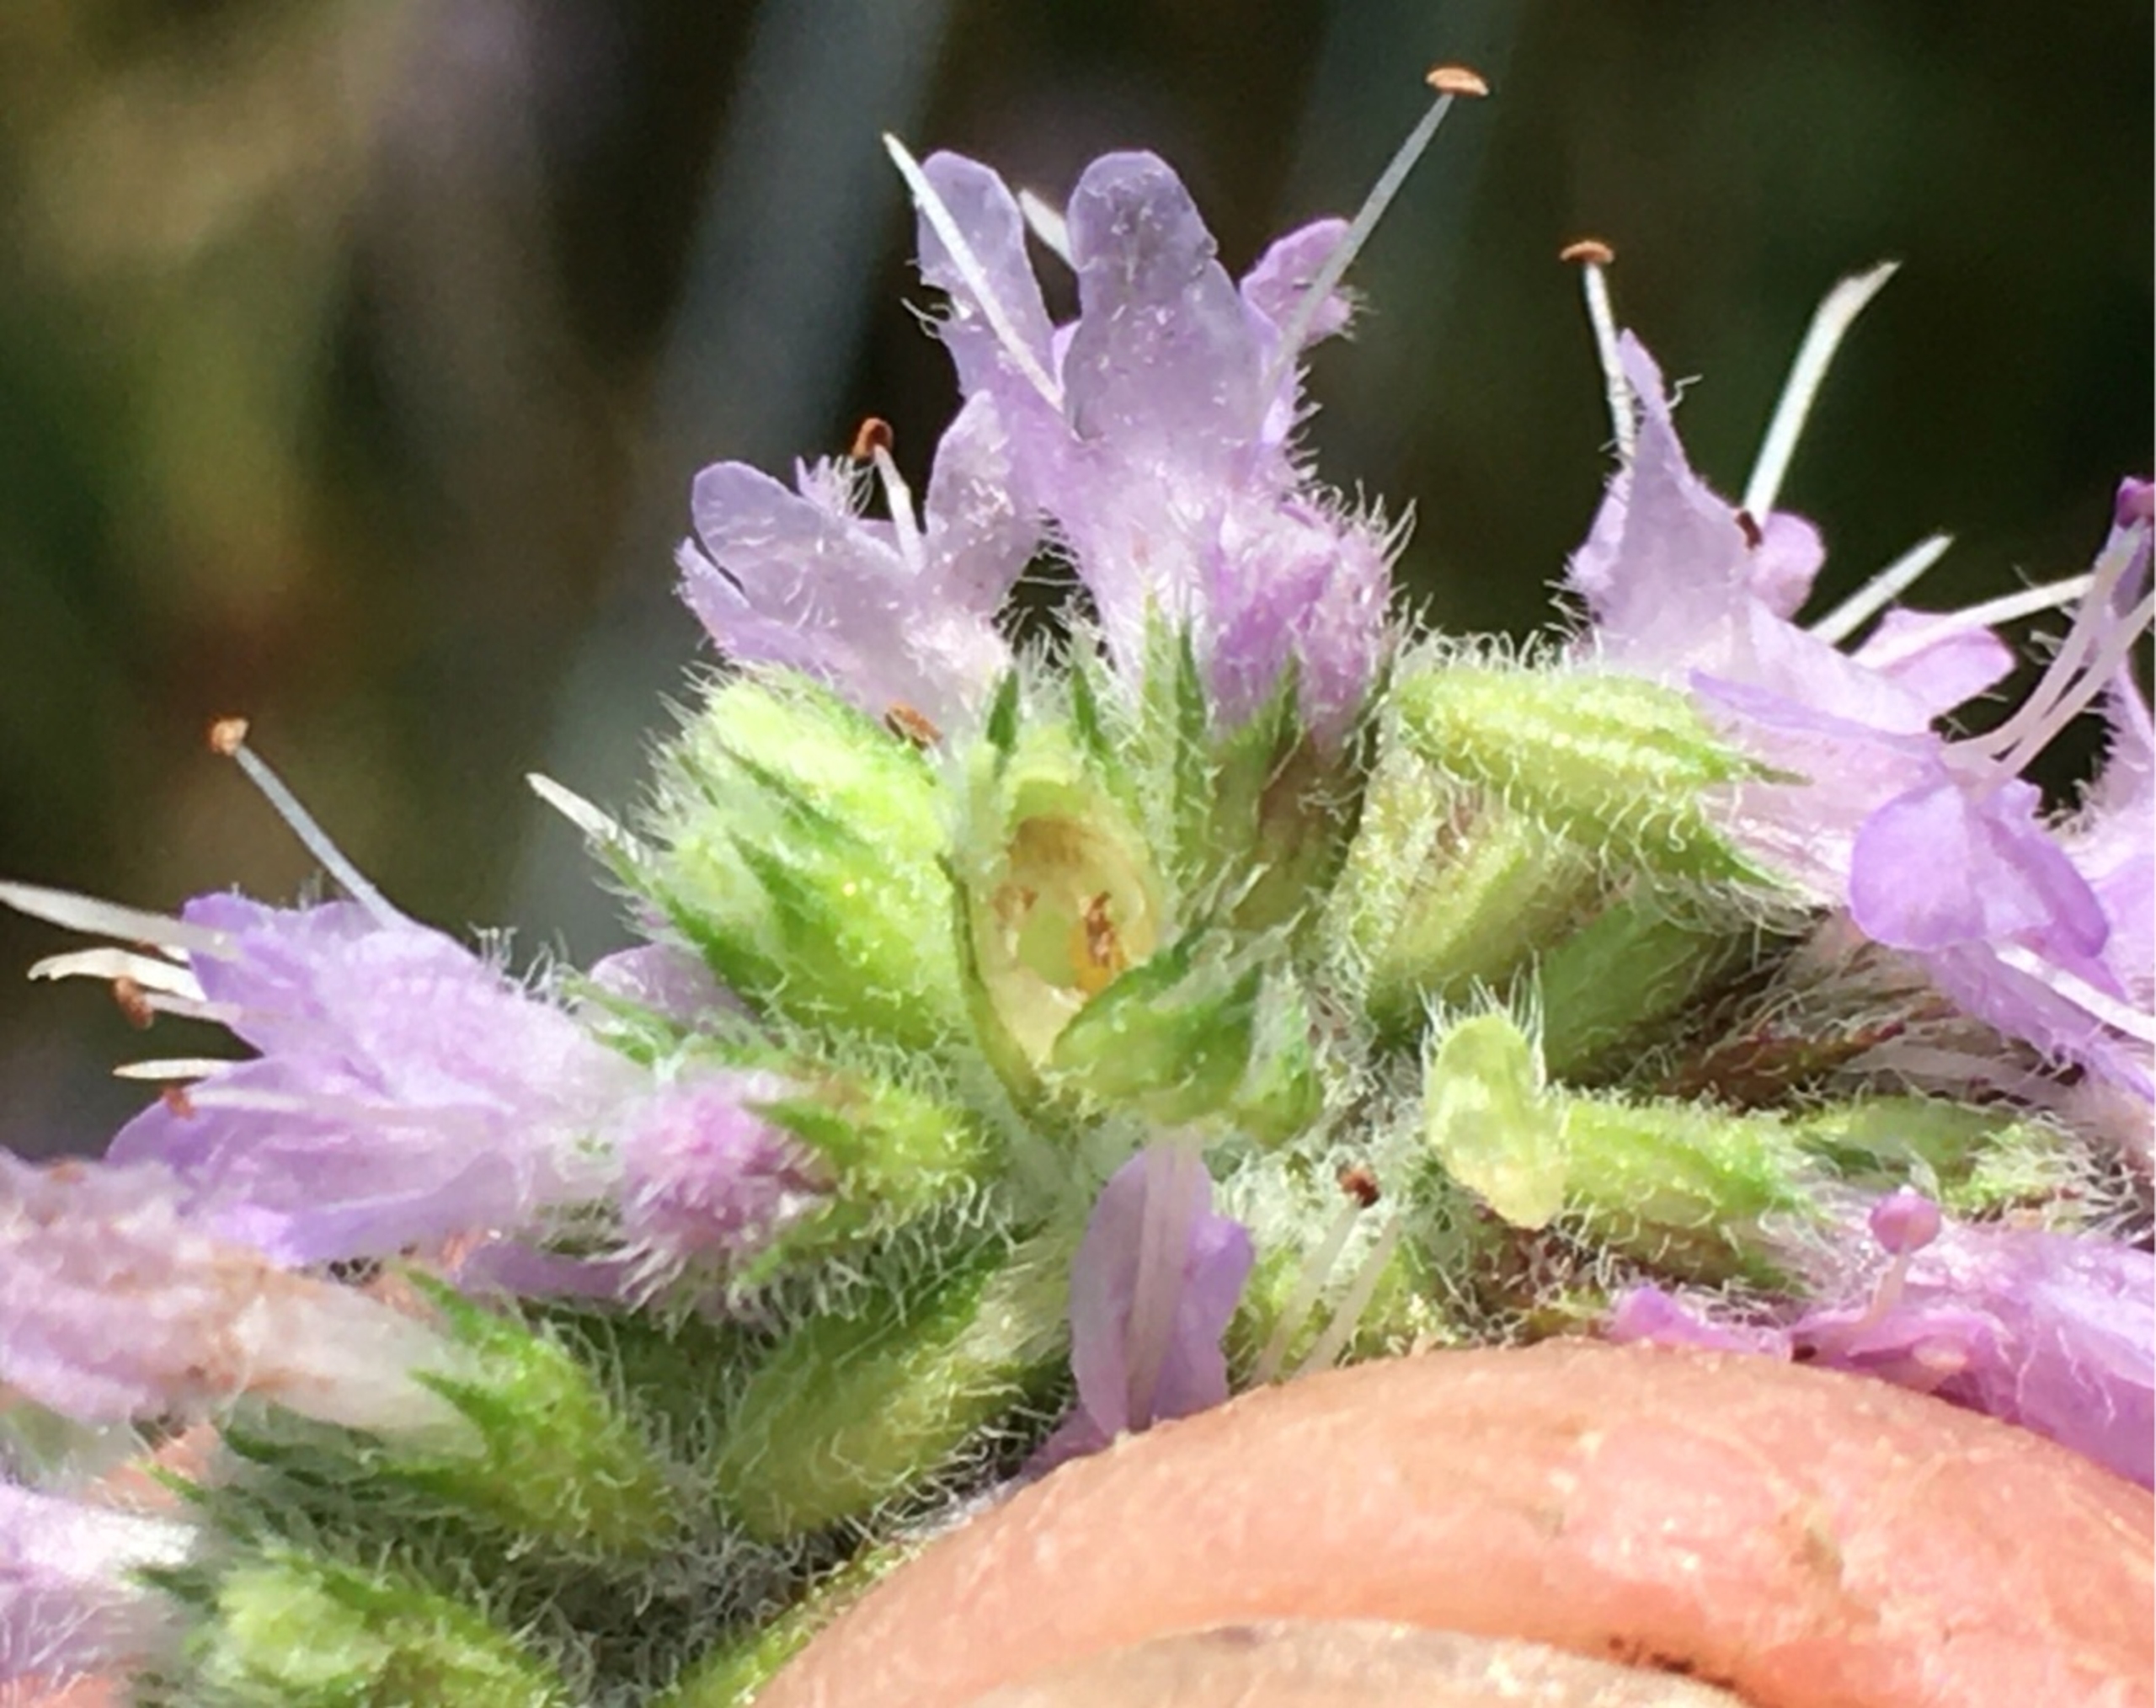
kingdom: Animalia
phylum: Arthropoda
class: Insecta
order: Diptera
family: Cecidomyiidae
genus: Asphondylia
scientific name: Asphondylia menthae
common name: Myntegalmyg
